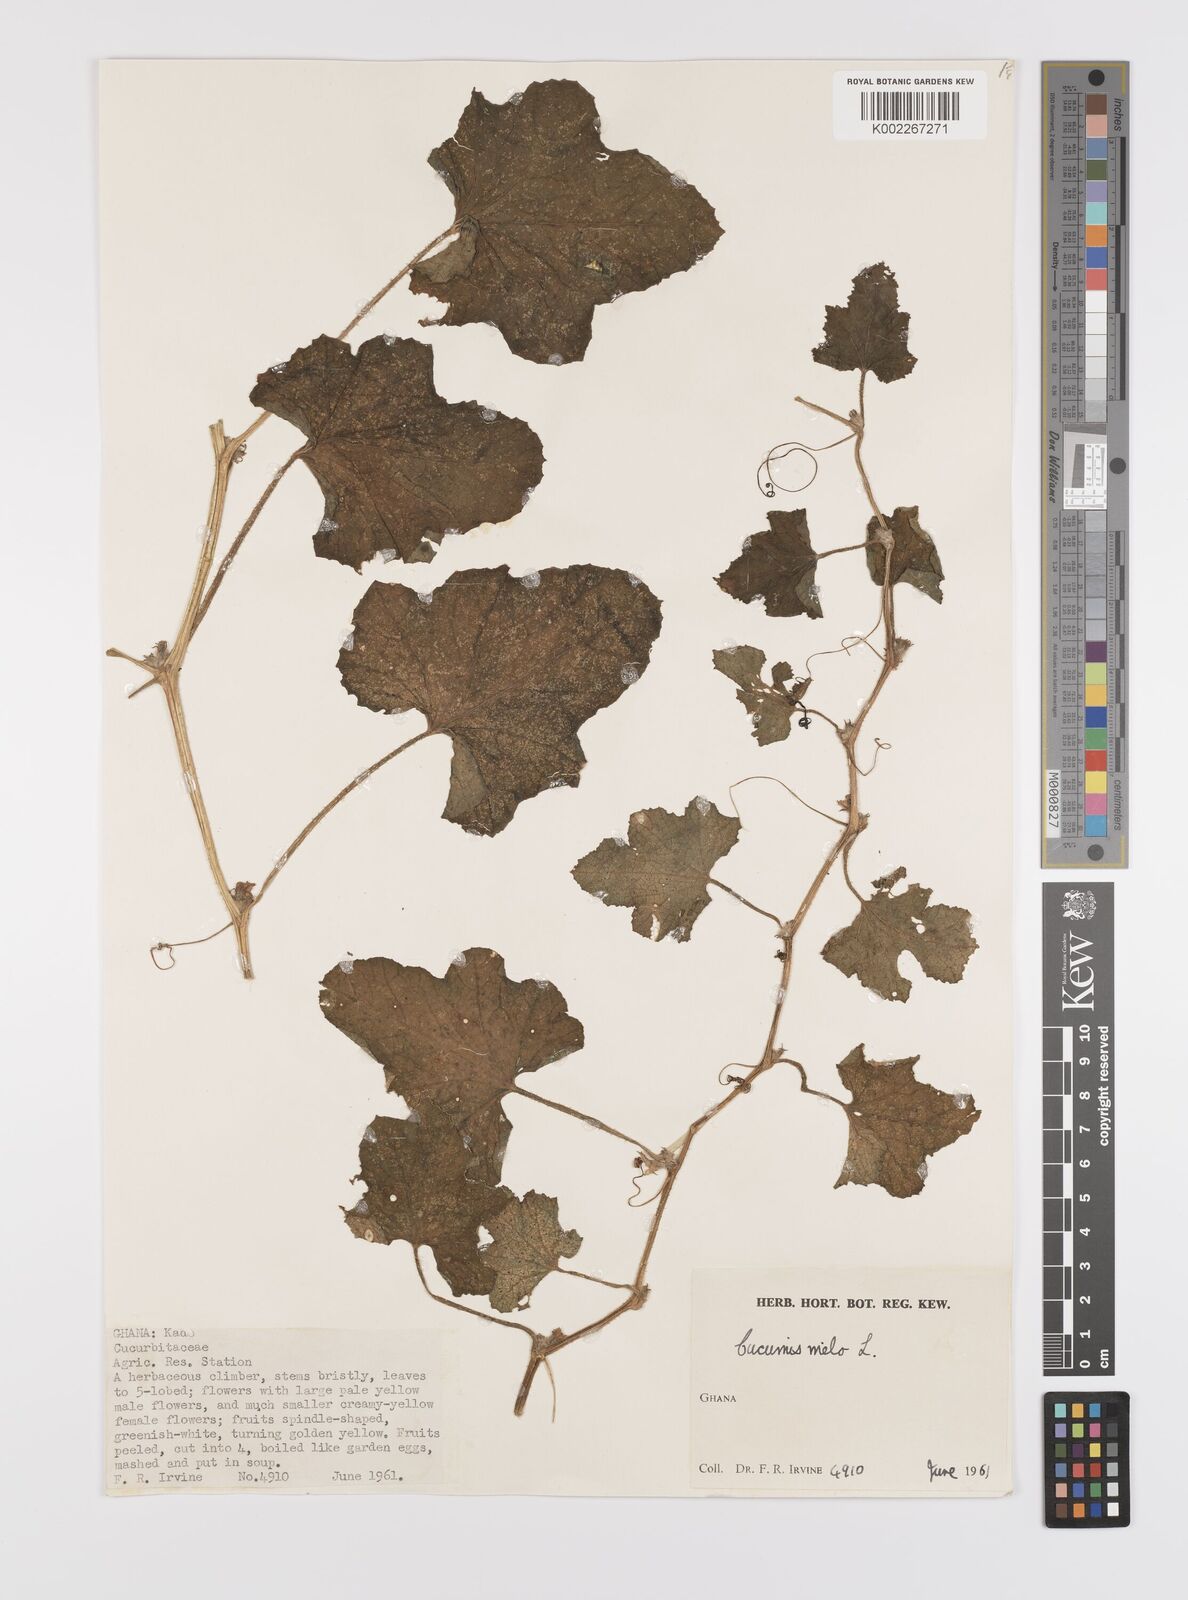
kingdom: Plantae
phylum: Tracheophyta
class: Magnoliopsida
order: Cucurbitales
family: Cucurbitaceae
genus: Cucumis
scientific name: Cucumis
